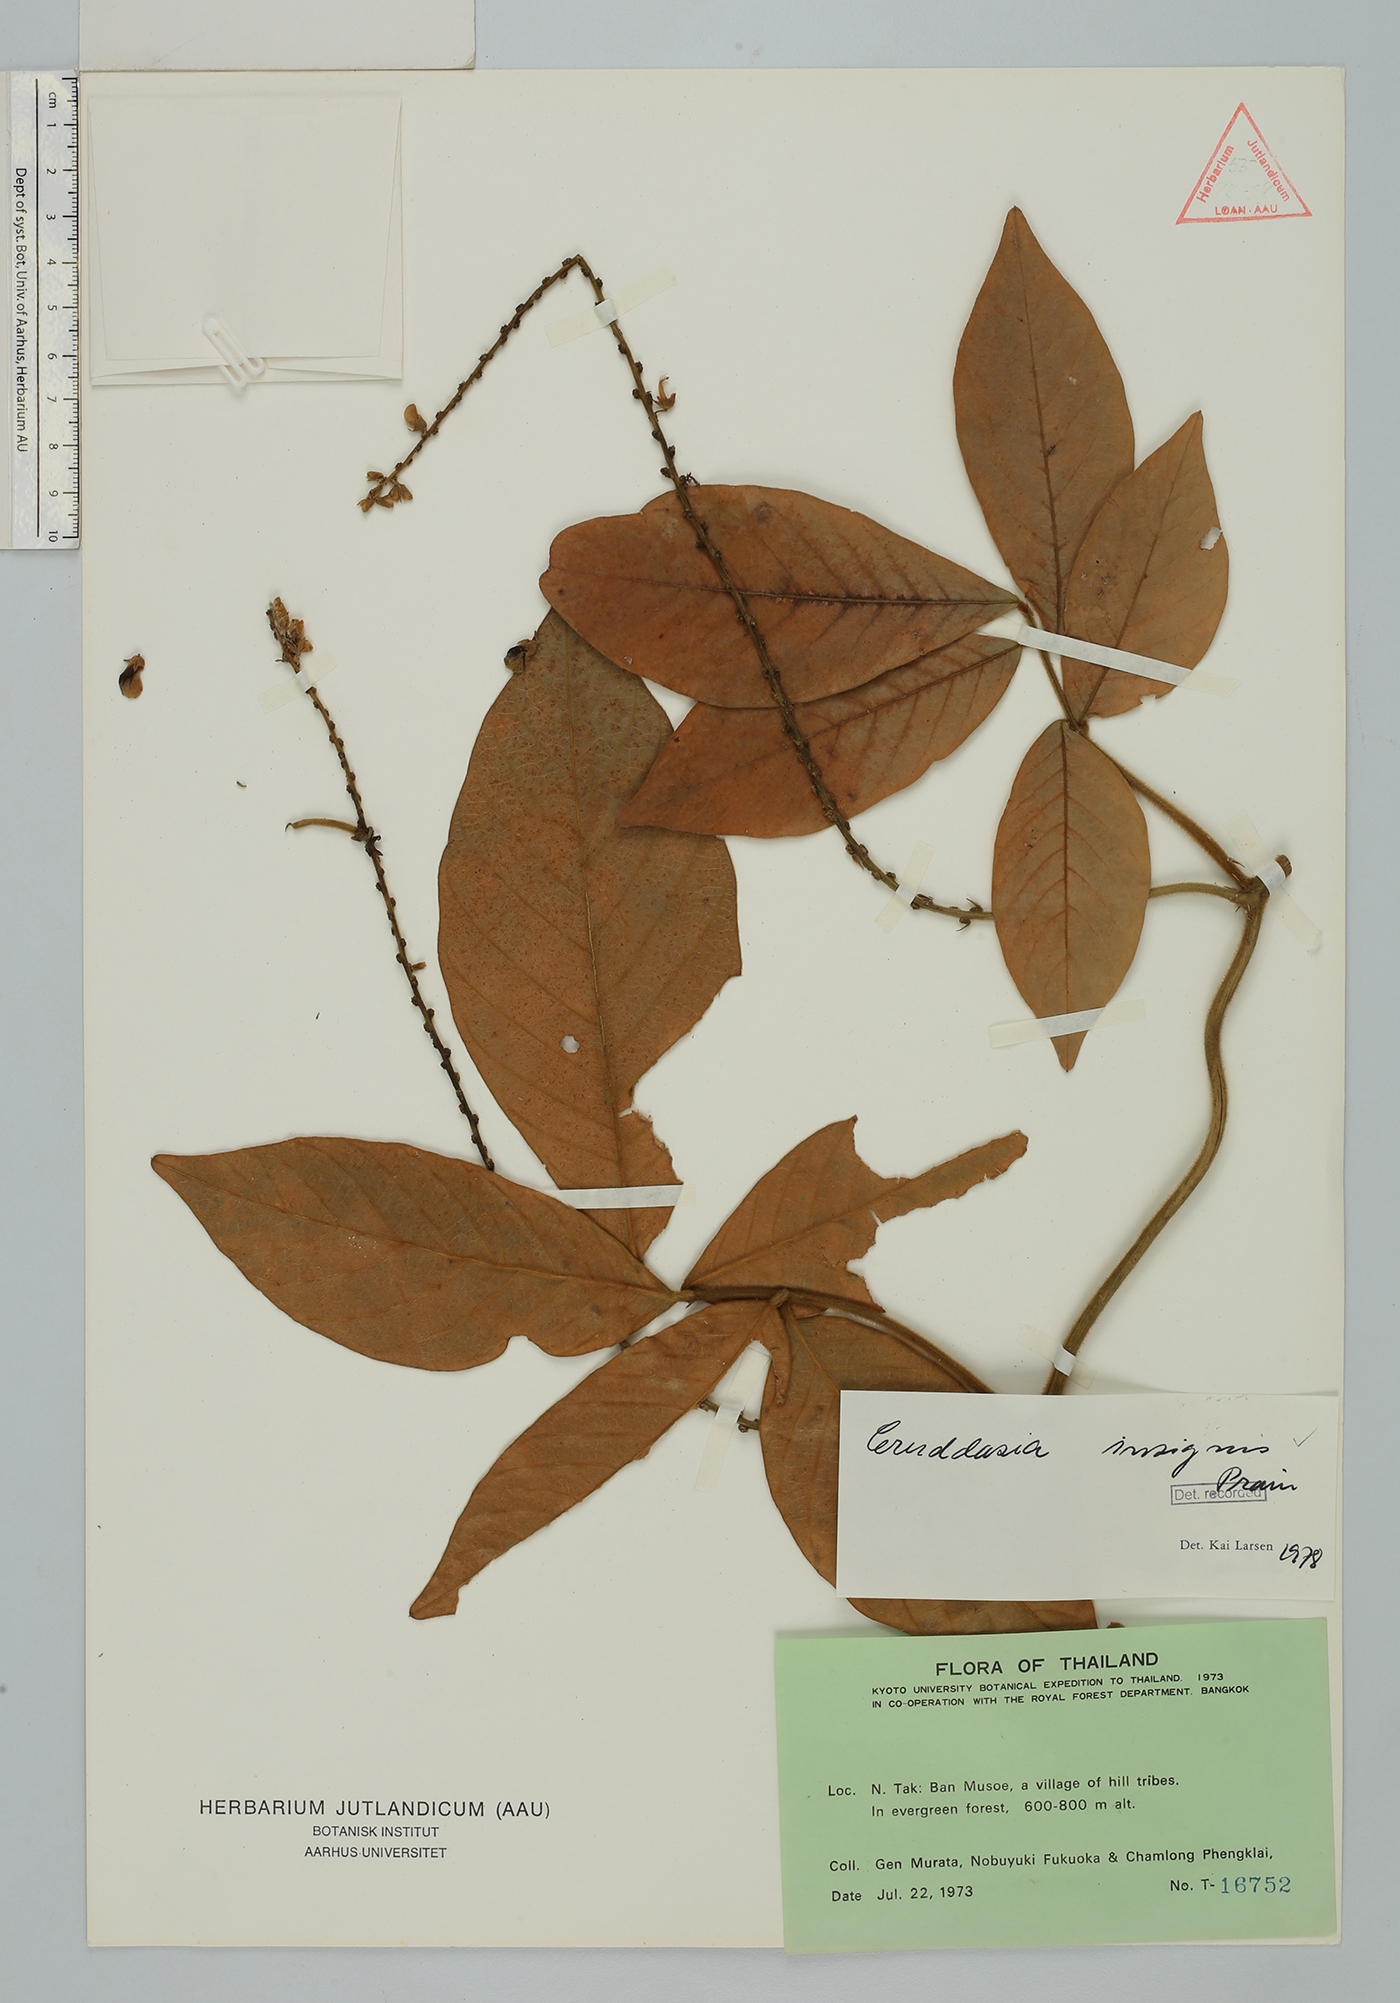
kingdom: Plantae
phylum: Tracheophyta
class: Magnoliopsida
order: Fabales
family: Fabaceae
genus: Cruddasia
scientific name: Cruddasia insignis
